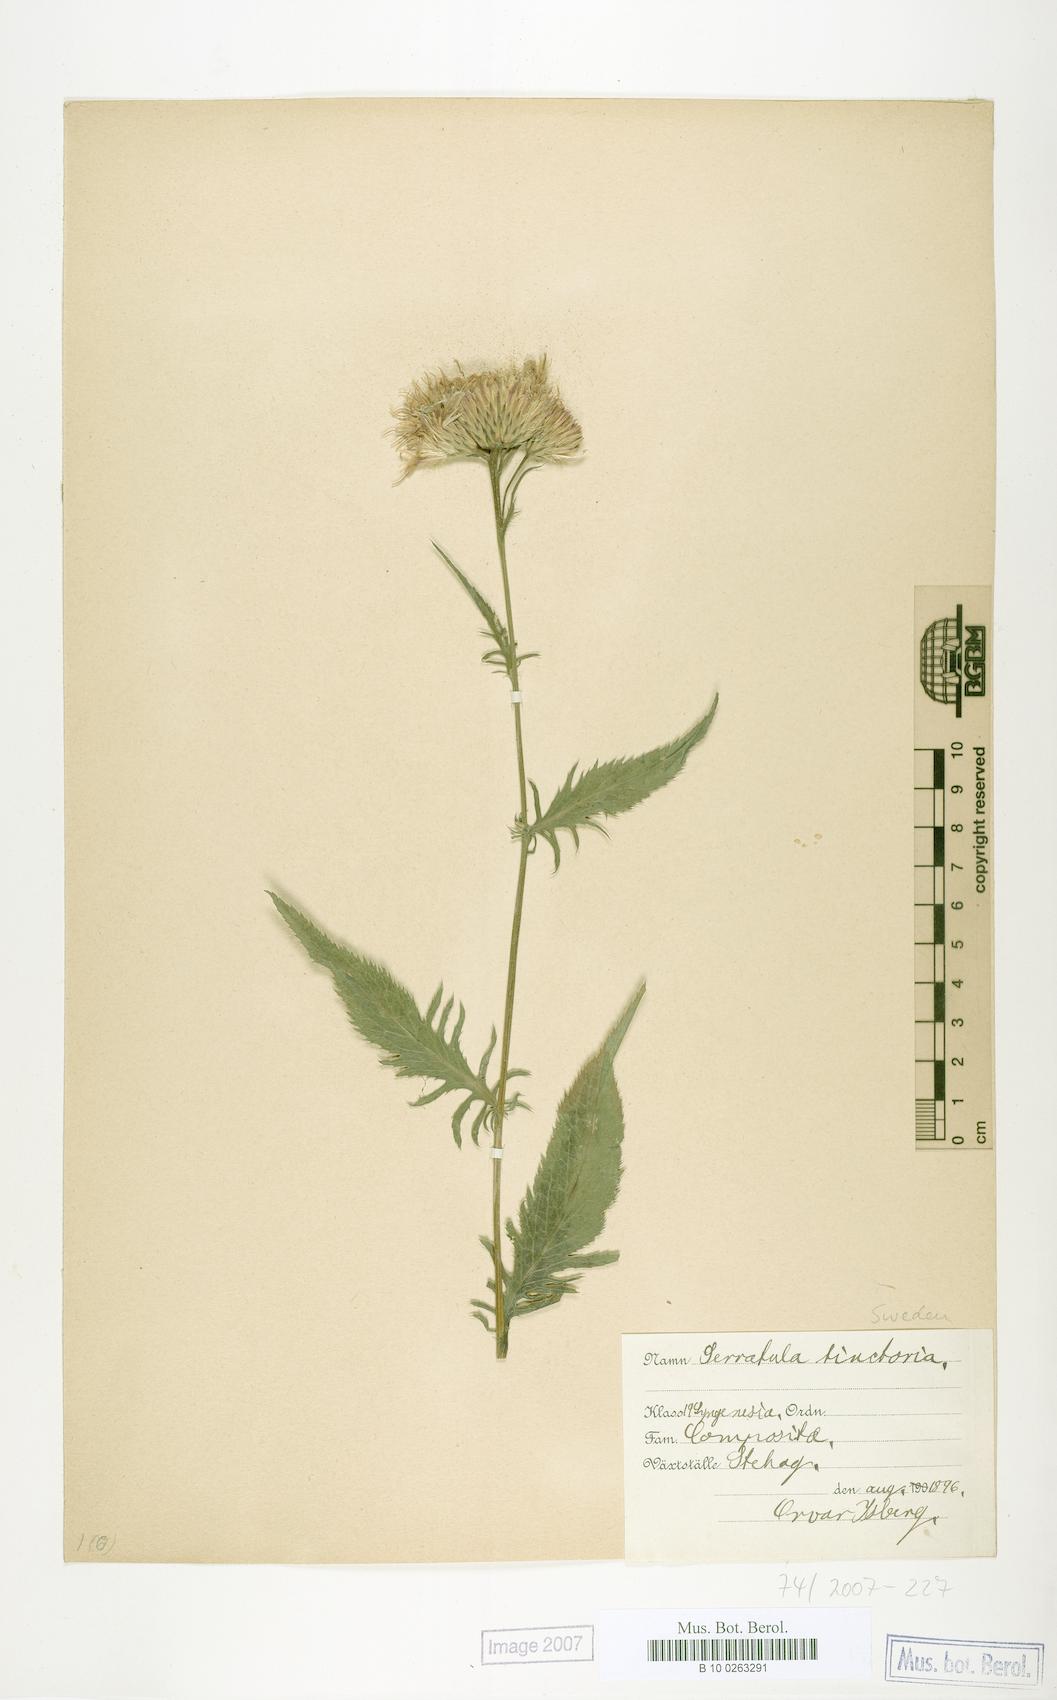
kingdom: Plantae
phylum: Tracheophyta
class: Magnoliopsida
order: Asterales
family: Asteraceae
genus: Serratula
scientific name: Serratula tinctoria
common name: Saw-wort
